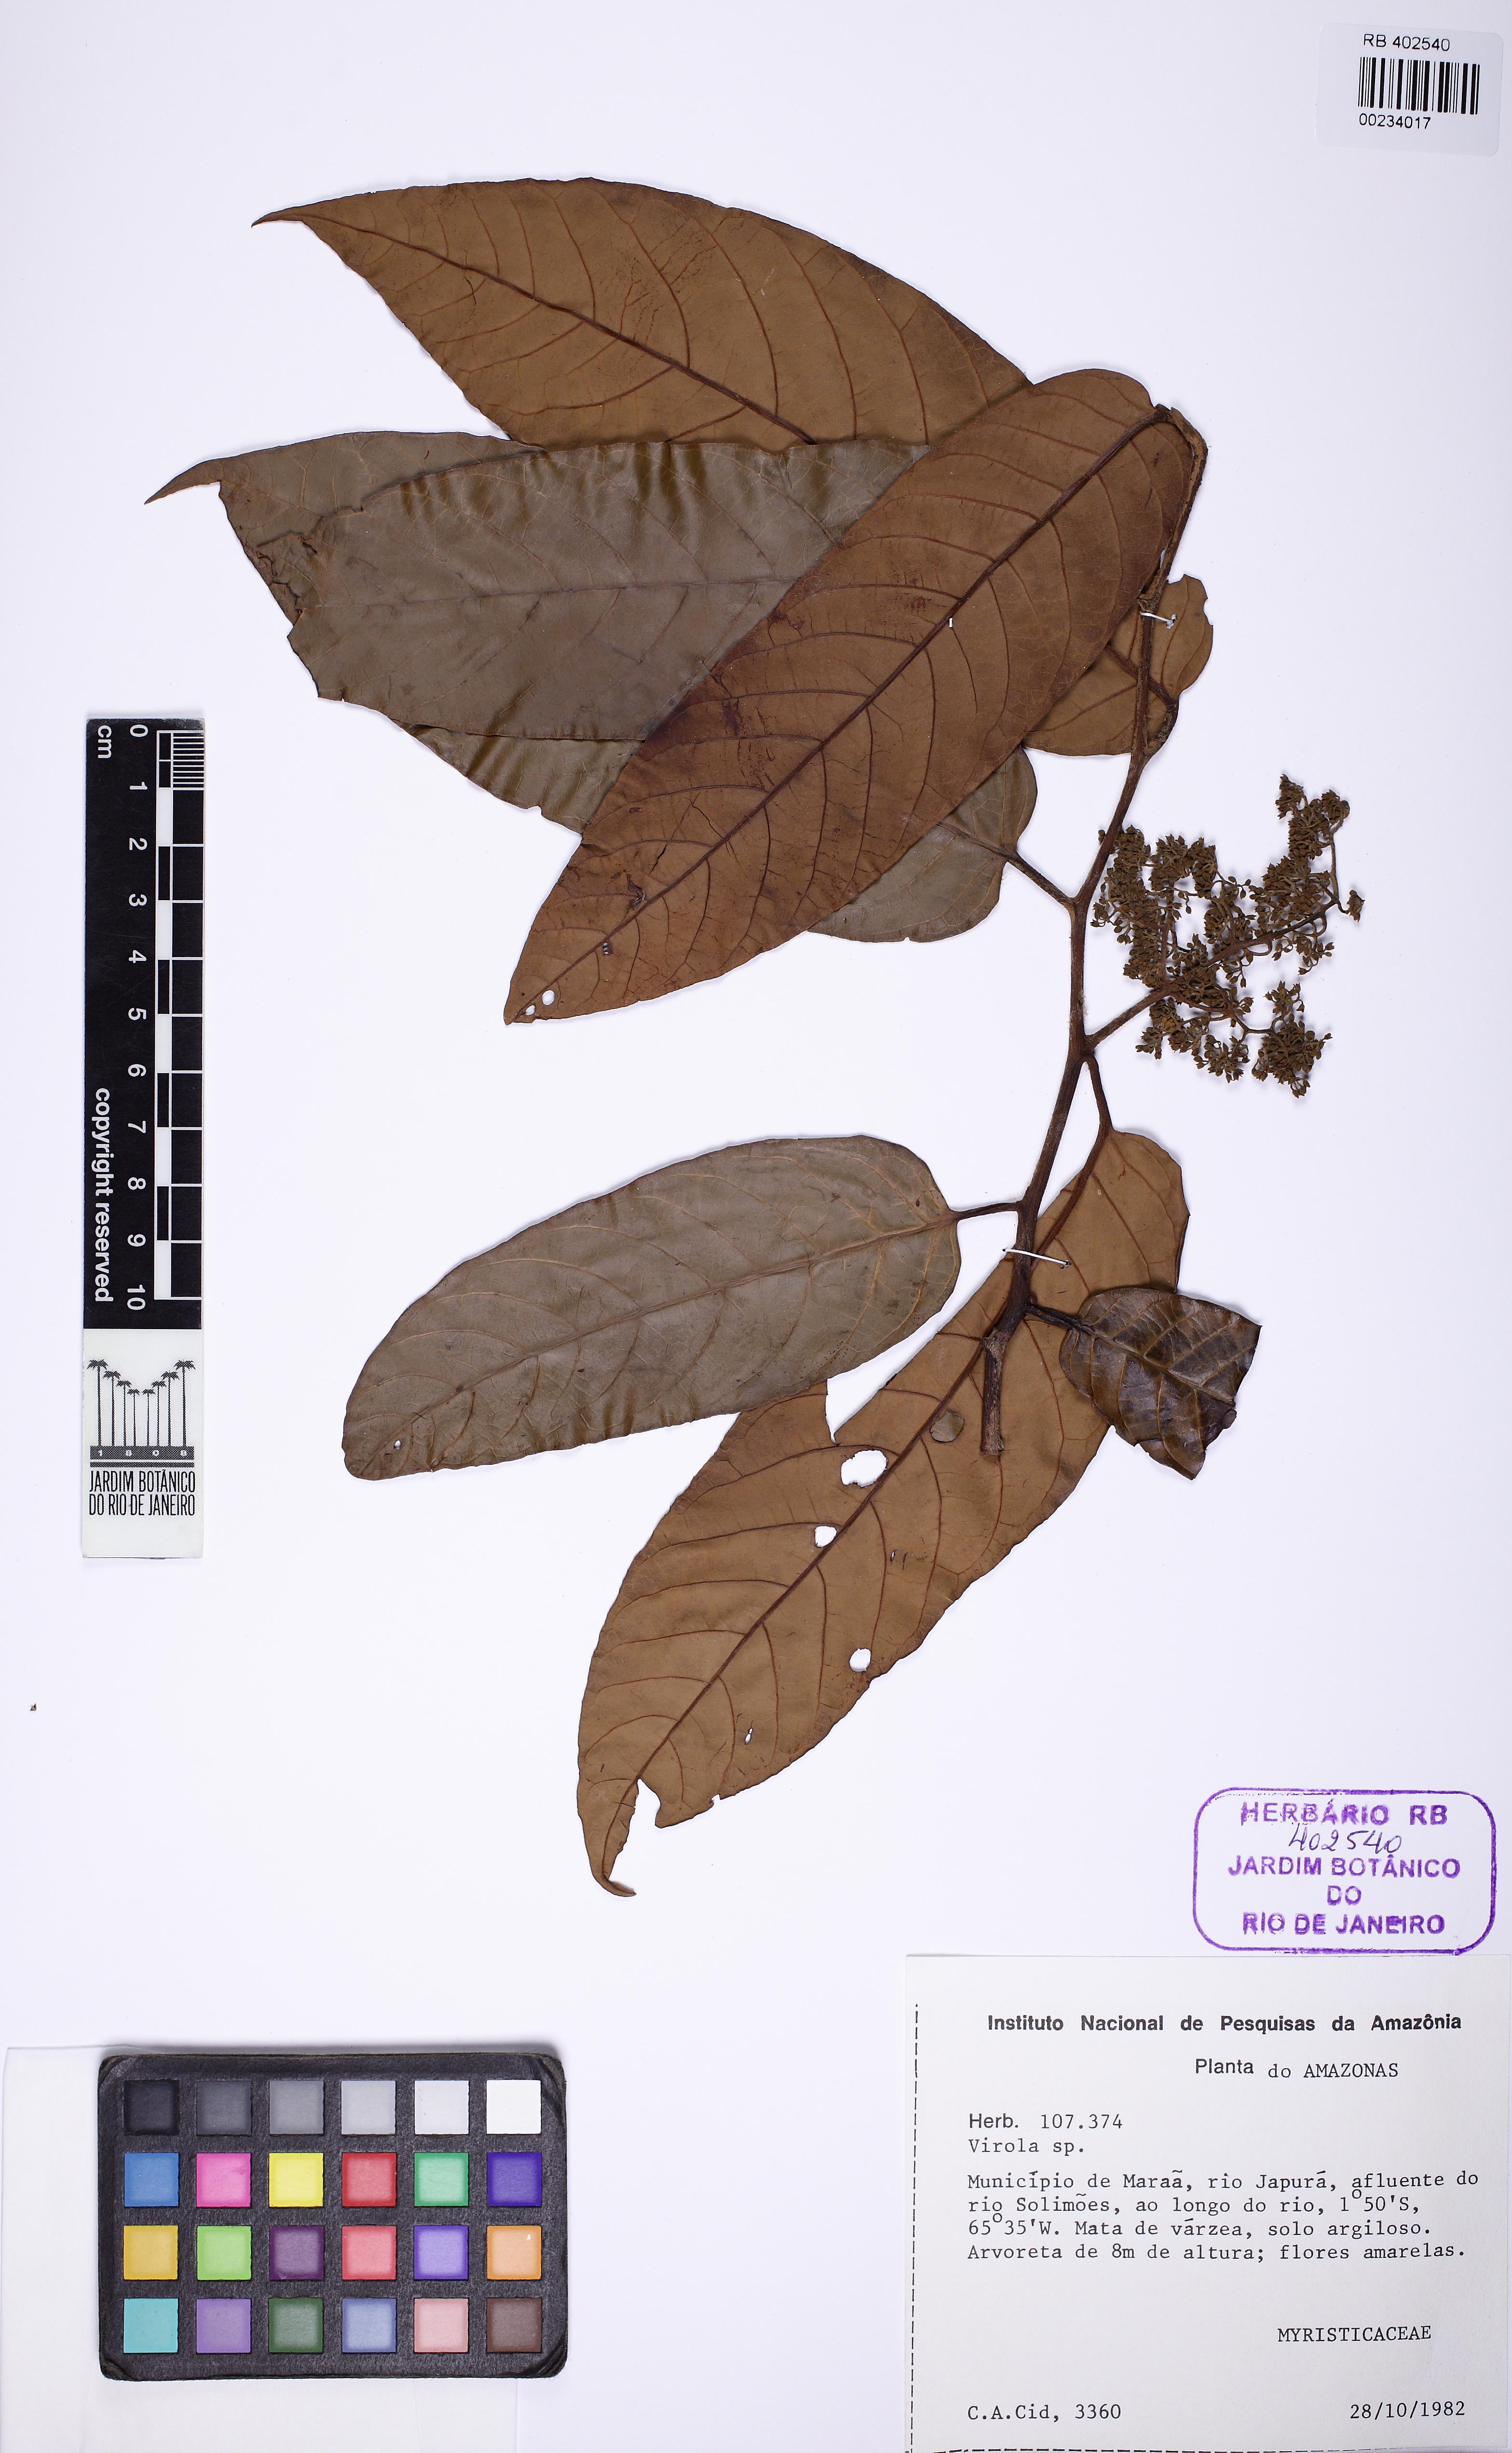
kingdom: Plantae
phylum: Tracheophyta
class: Magnoliopsida
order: Magnoliales
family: Myristicaceae
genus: Virola
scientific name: Virola
